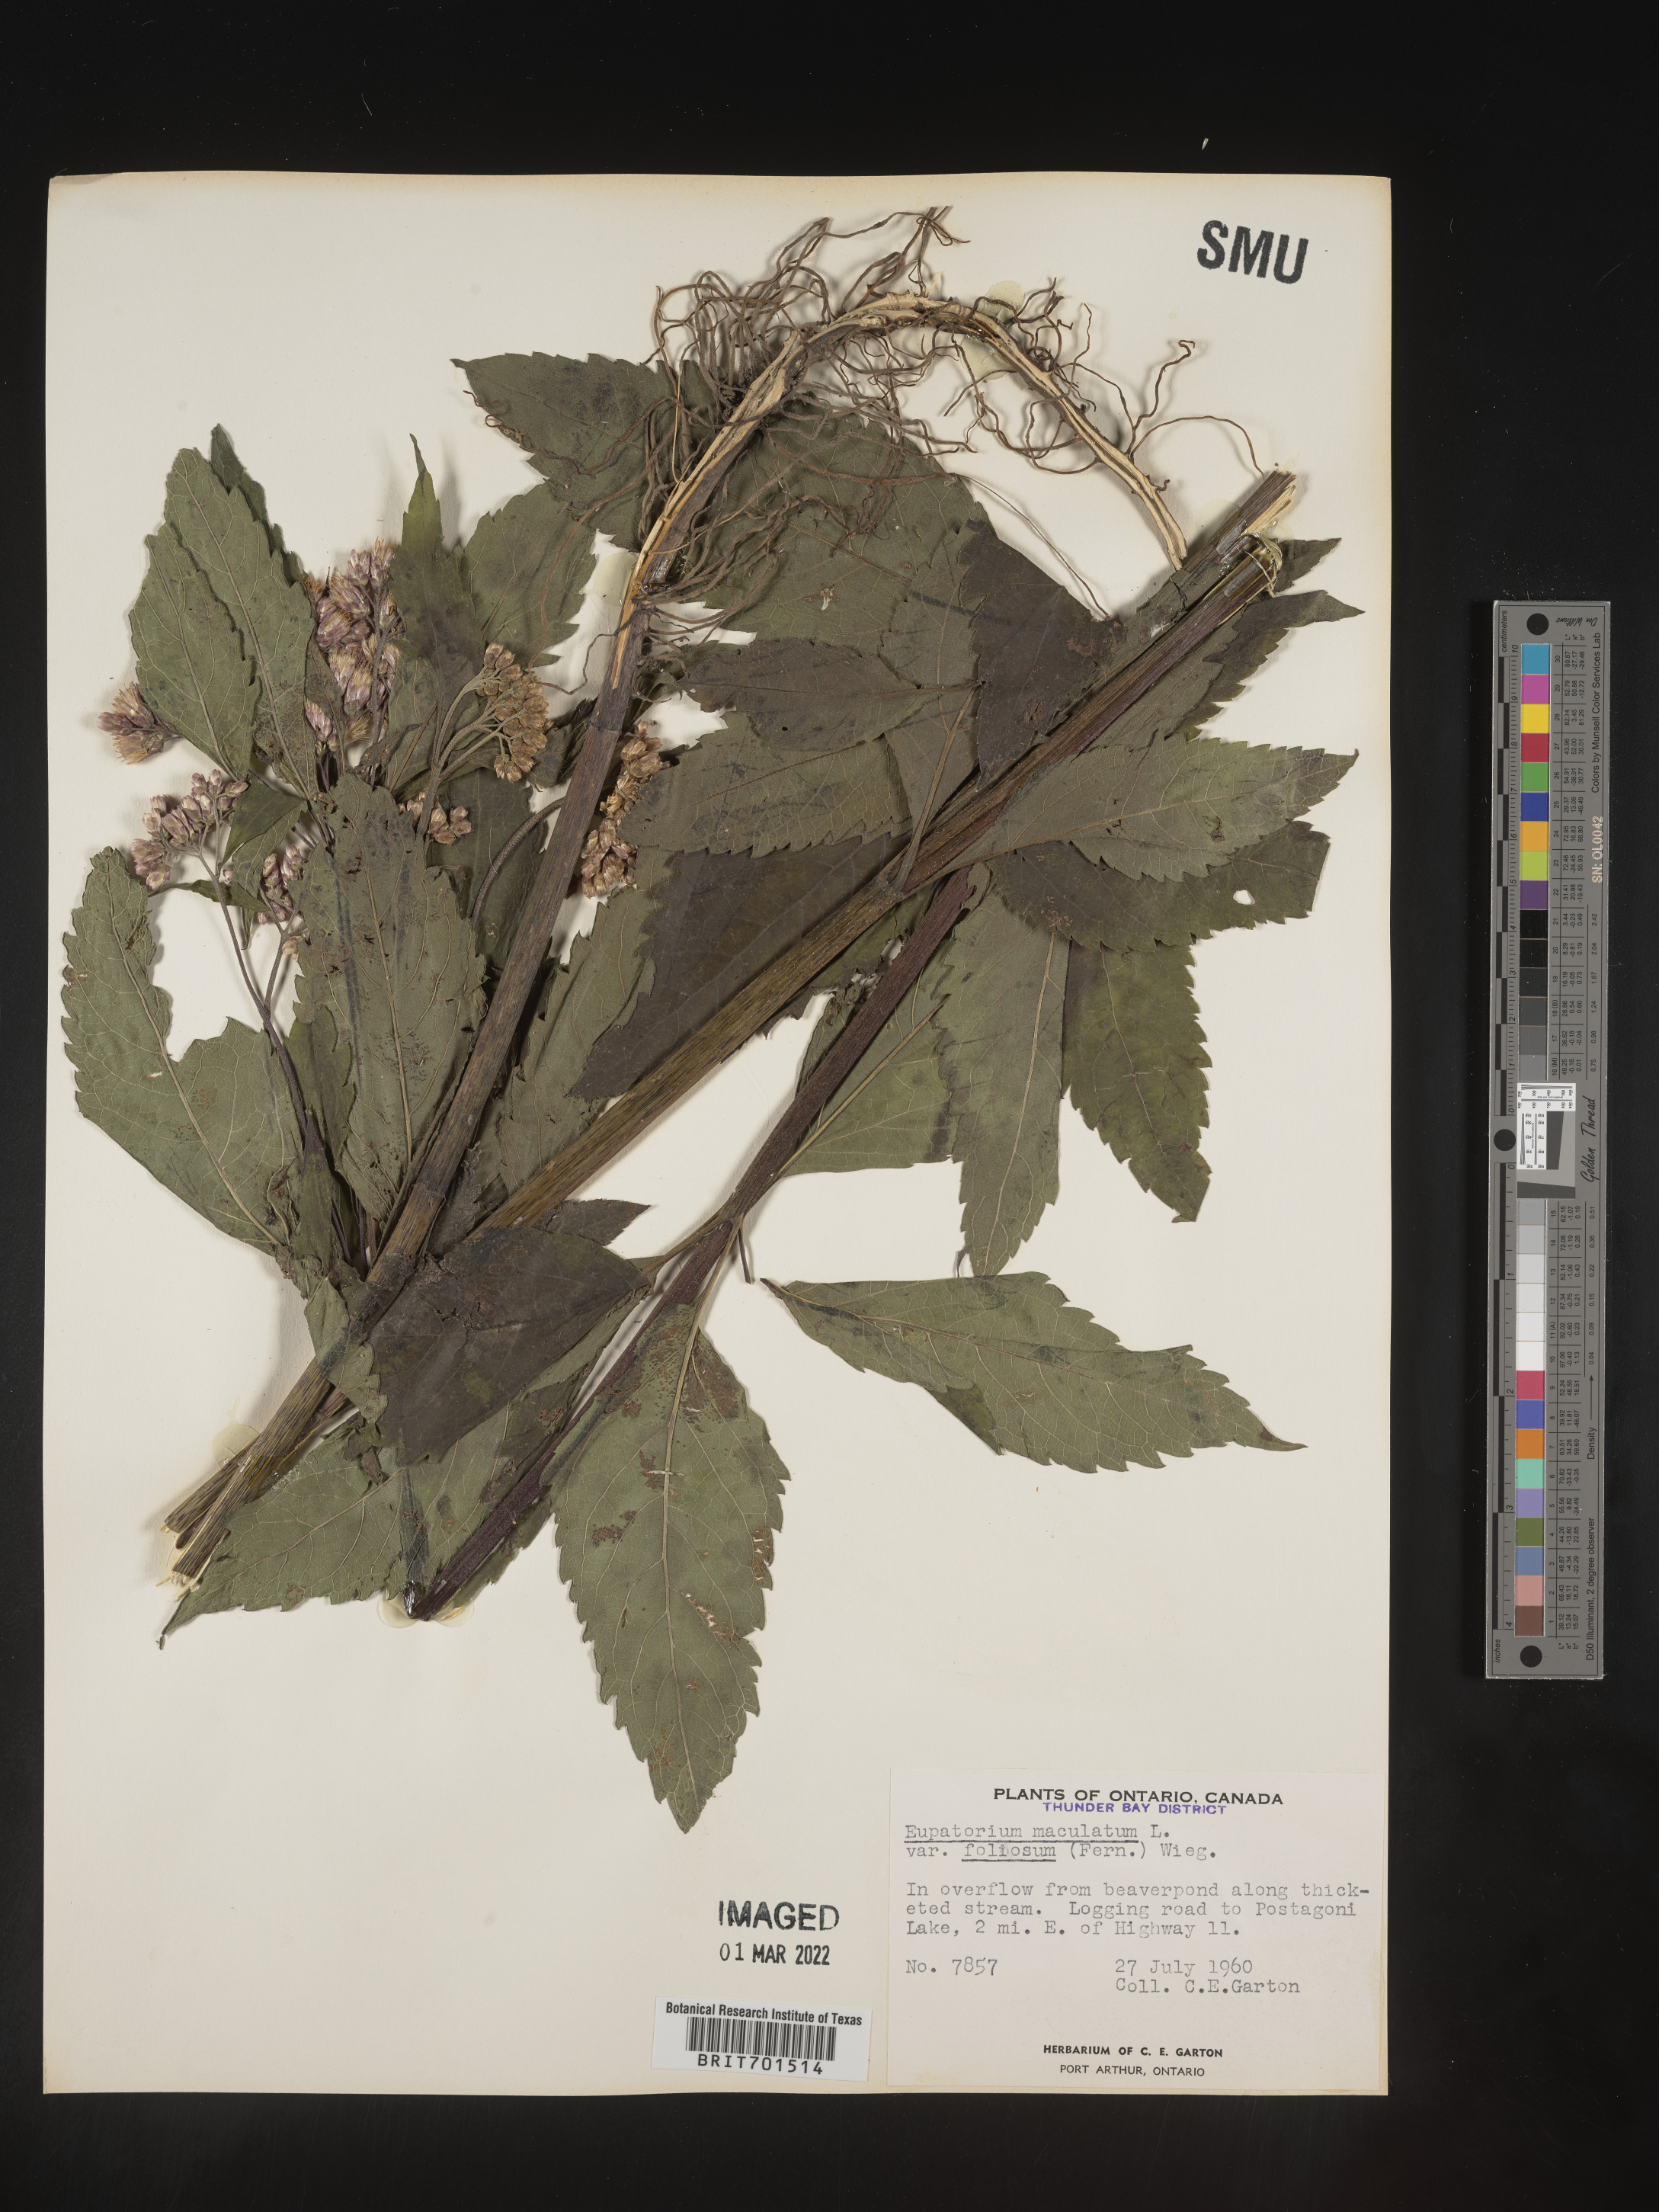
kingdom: Plantae
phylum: Tracheophyta
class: Magnoliopsida
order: Asterales
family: Asteraceae
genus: Eutrochium
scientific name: Eutrochium maculatum
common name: Spotted joe pye weed
